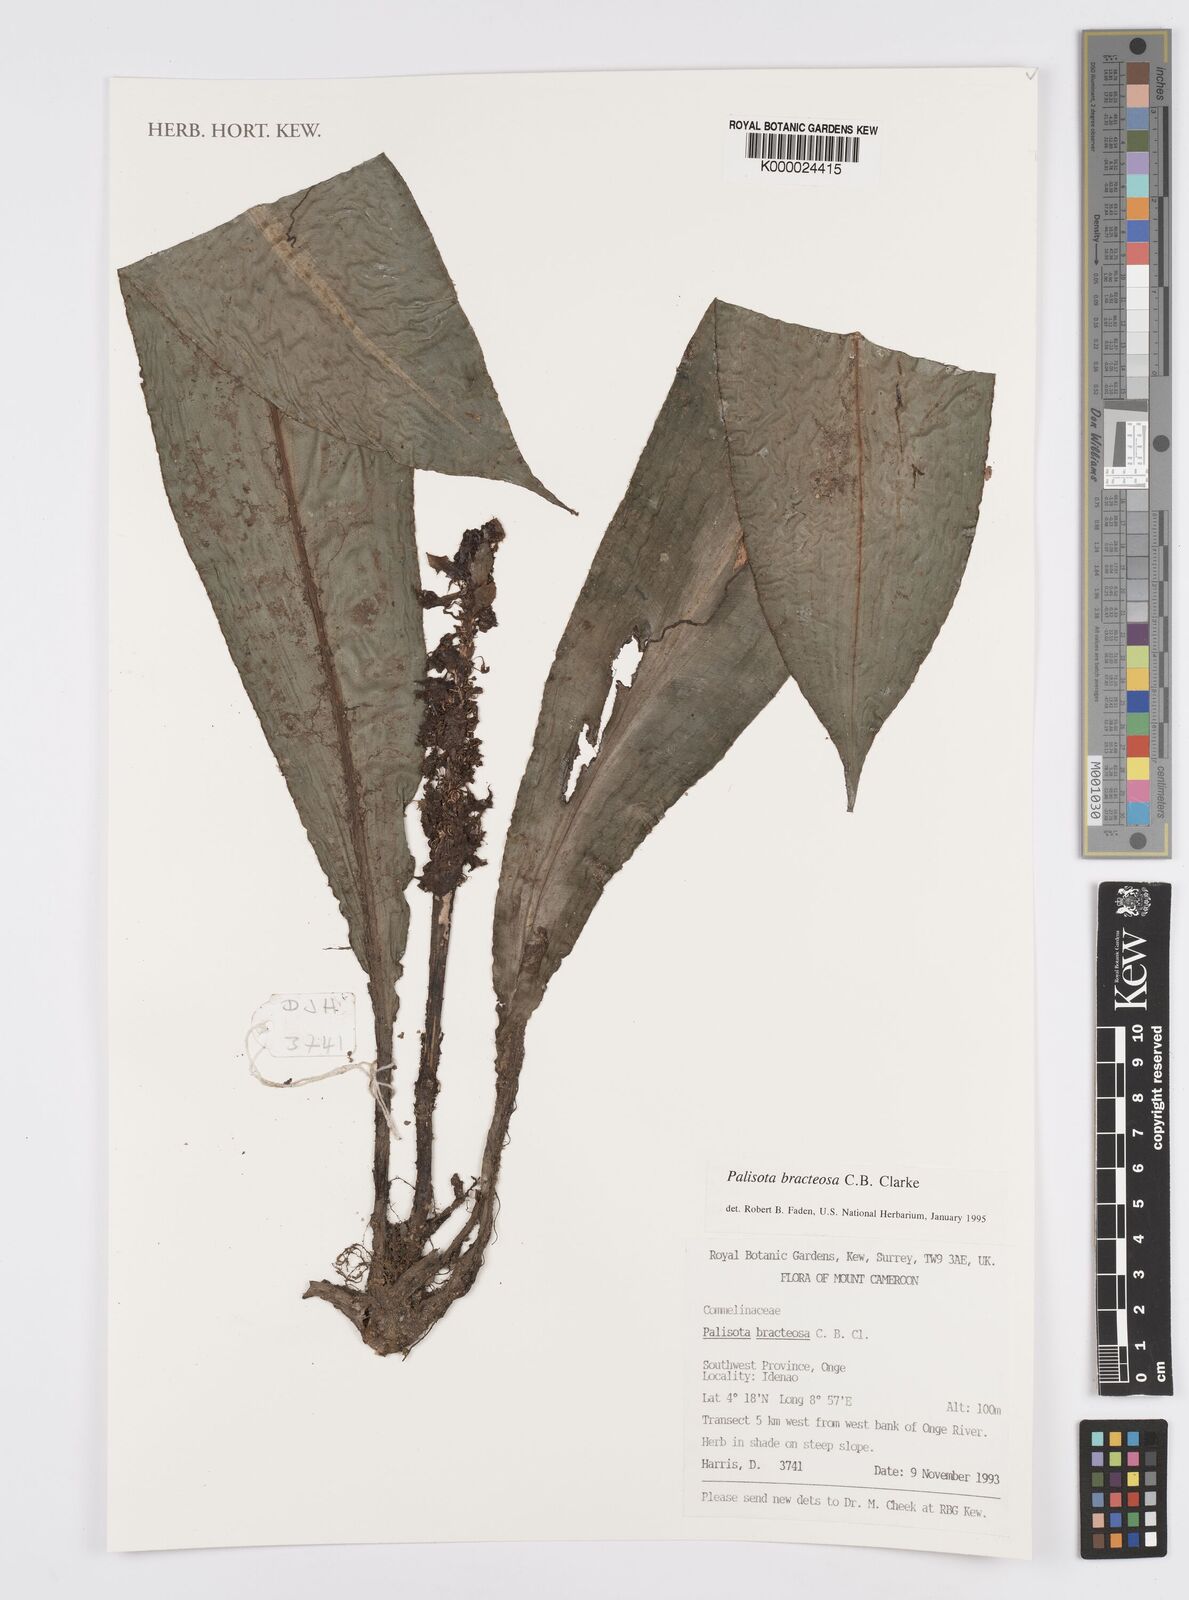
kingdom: Plantae
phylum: Tracheophyta
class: Liliopsida
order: Commelinales
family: Commelinaceae
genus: Palisota
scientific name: Palisota bracteosa
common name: Palisota
